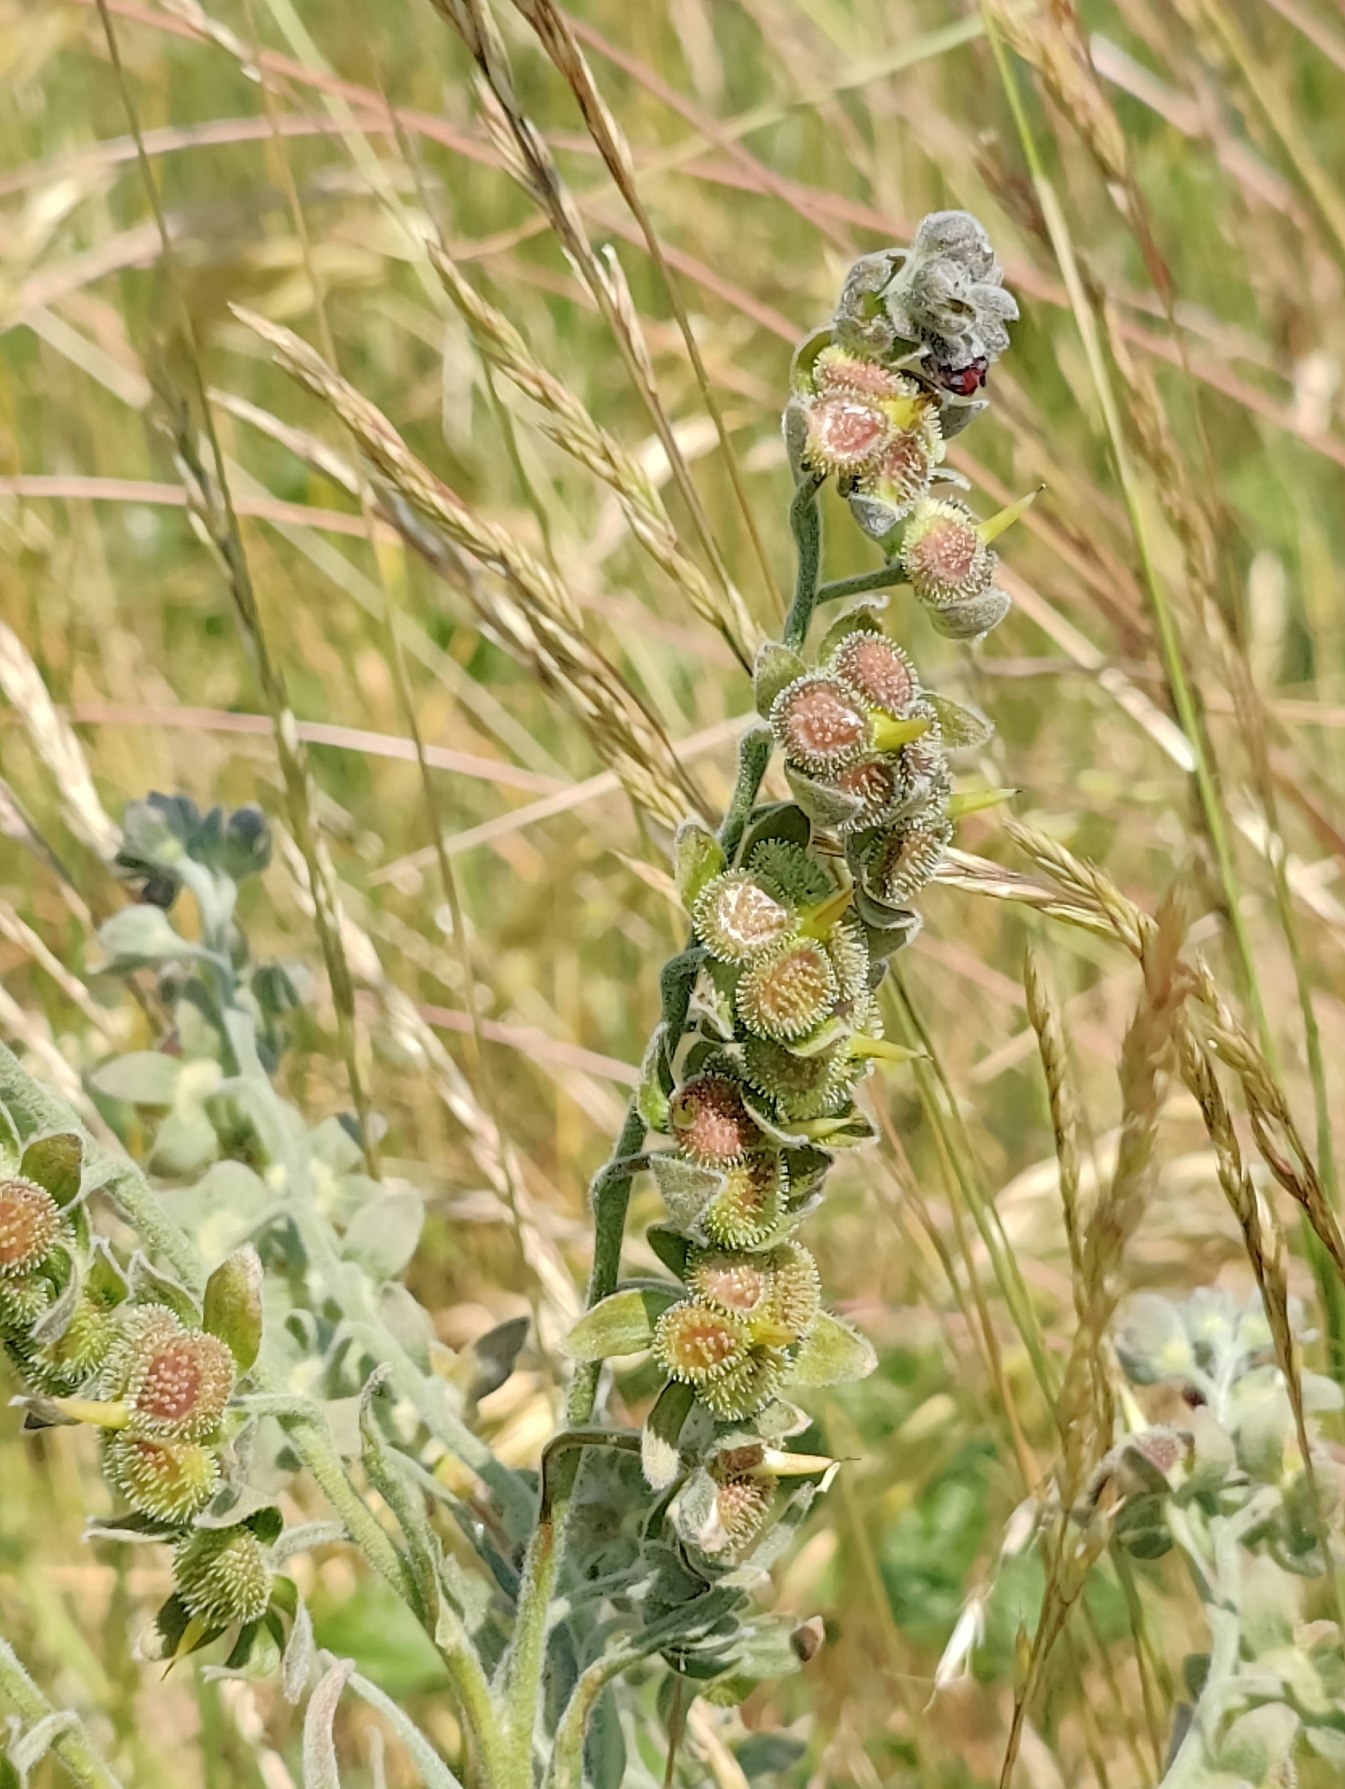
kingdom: Plantae
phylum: Tracheophyta
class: Magnoliopsida
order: Boraginales
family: Boraginaceae
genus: Cynoglossum
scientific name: Cynoglossum officinale
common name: Hundetunge
